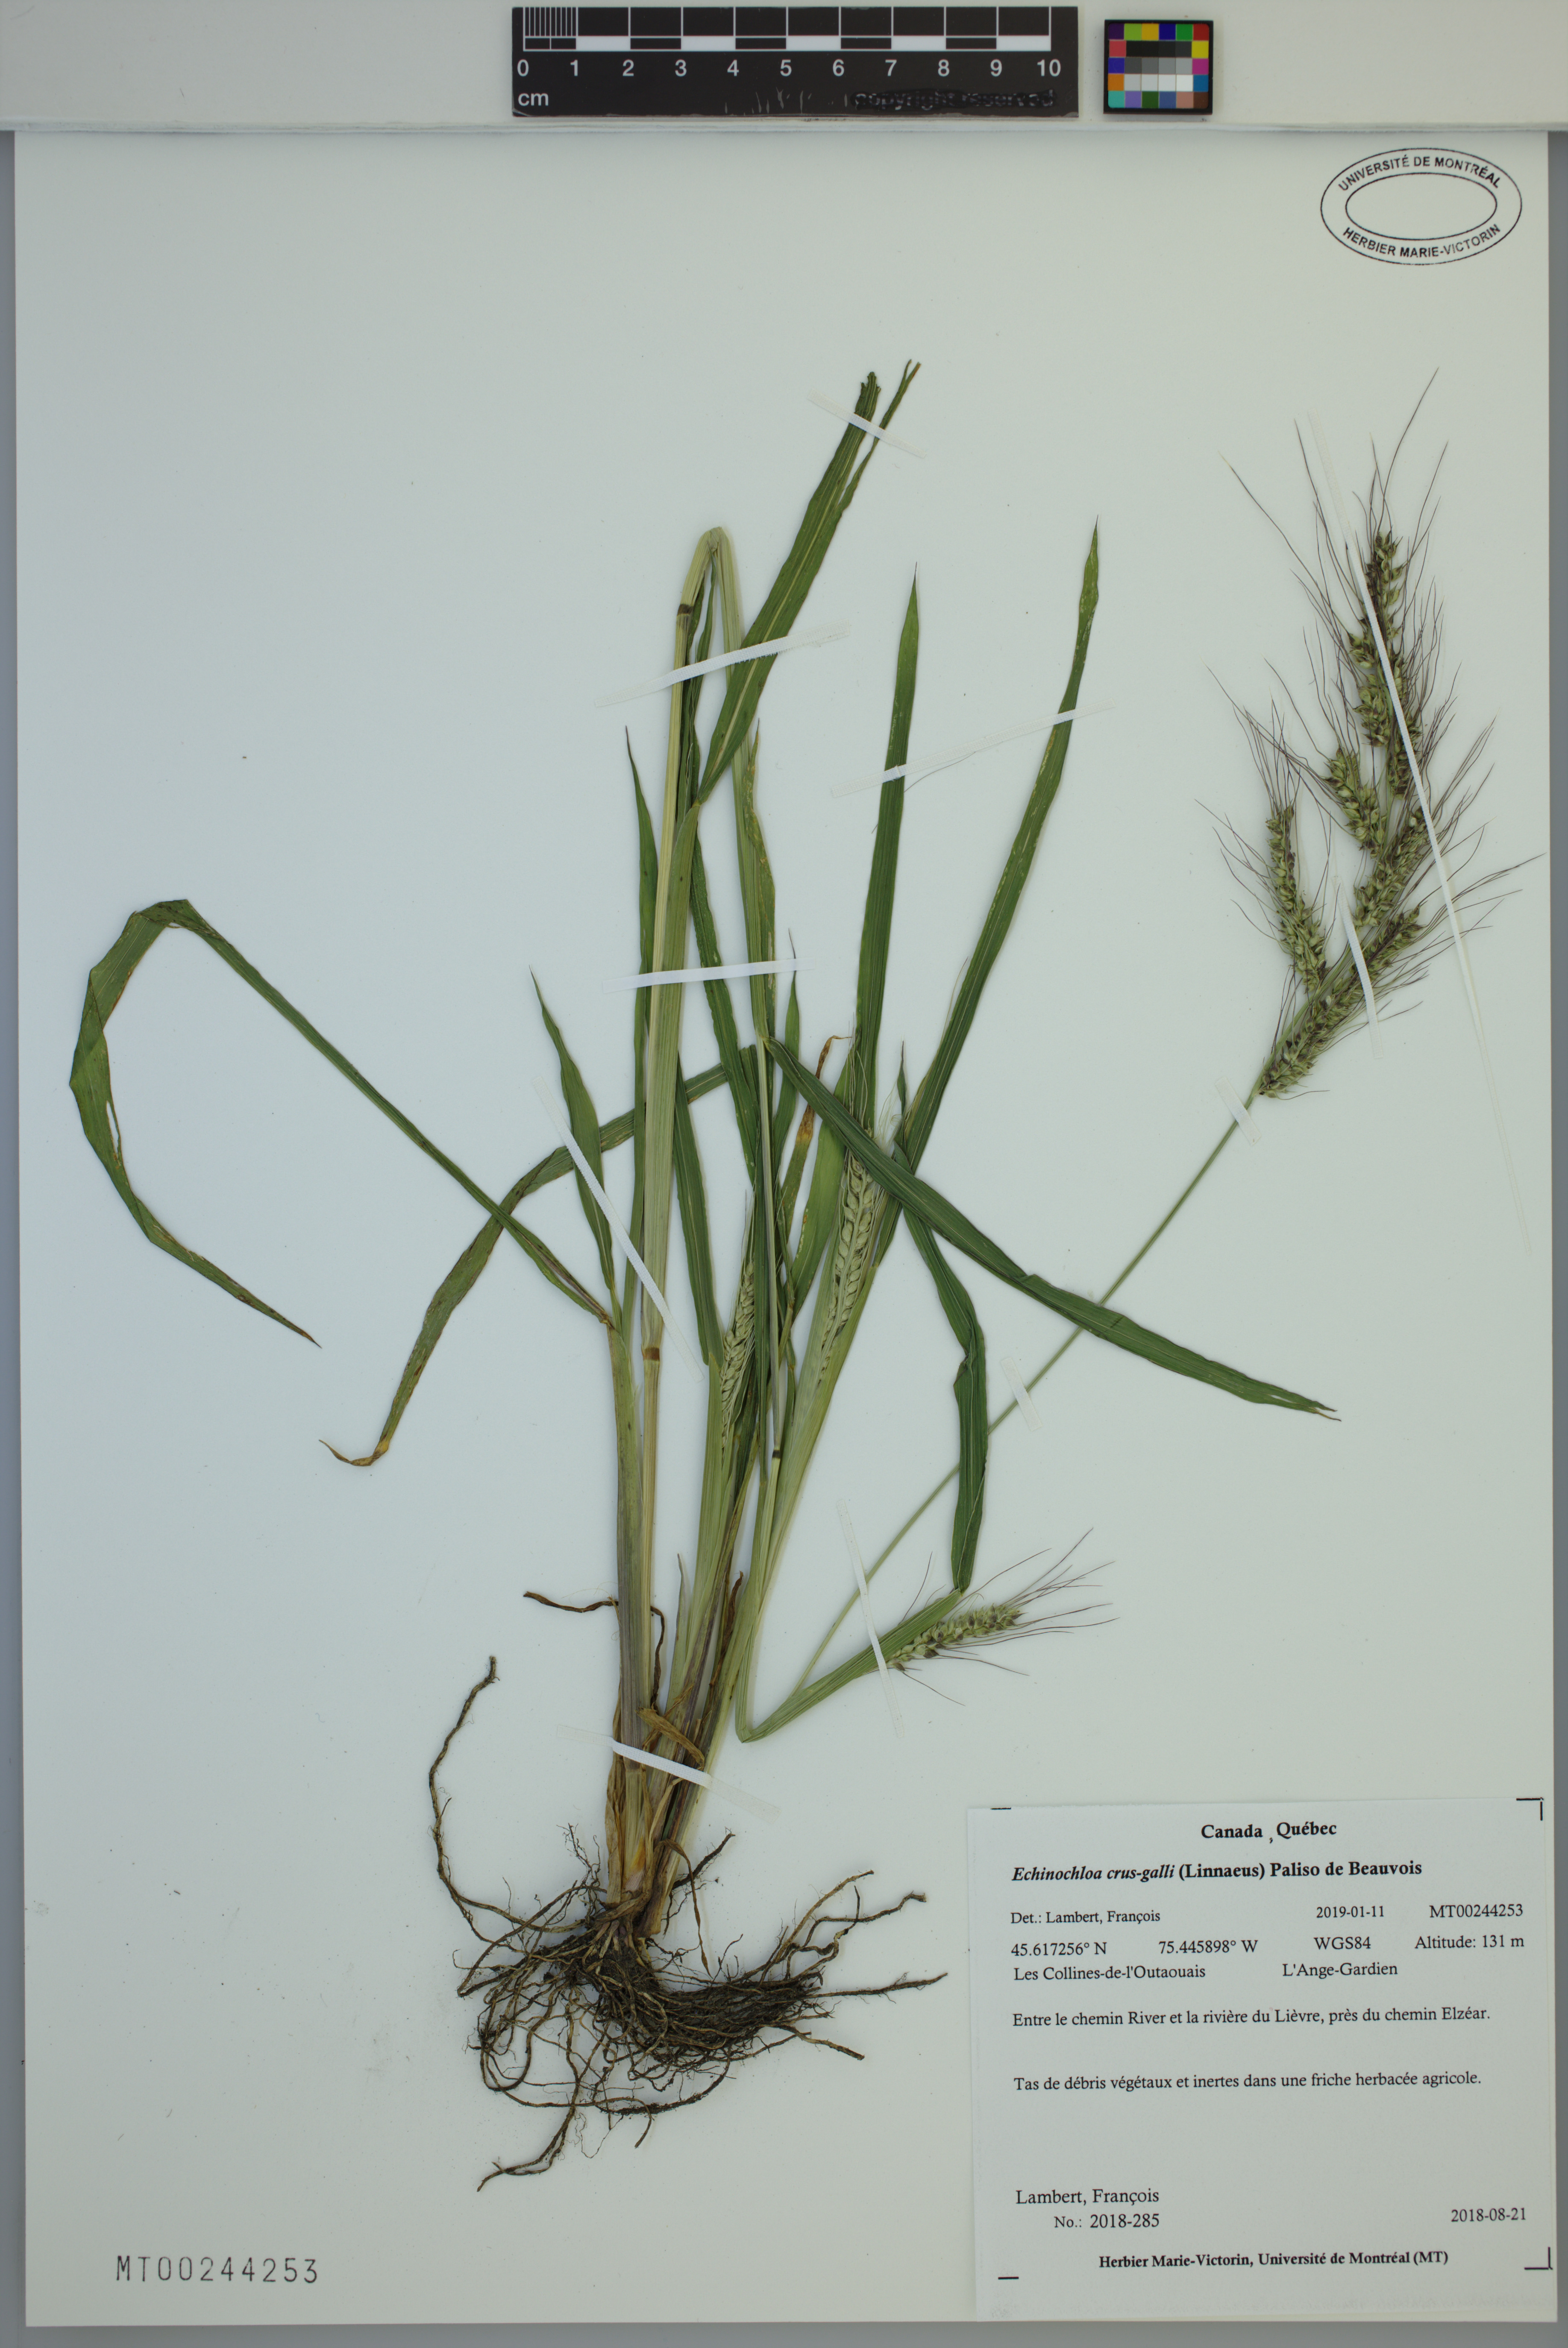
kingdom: Plantae
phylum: Tracheophyta
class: Liliopsida
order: Poales
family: Poaceae
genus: Echinochloa
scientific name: Echinochloa crus-galli
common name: Cockspur
